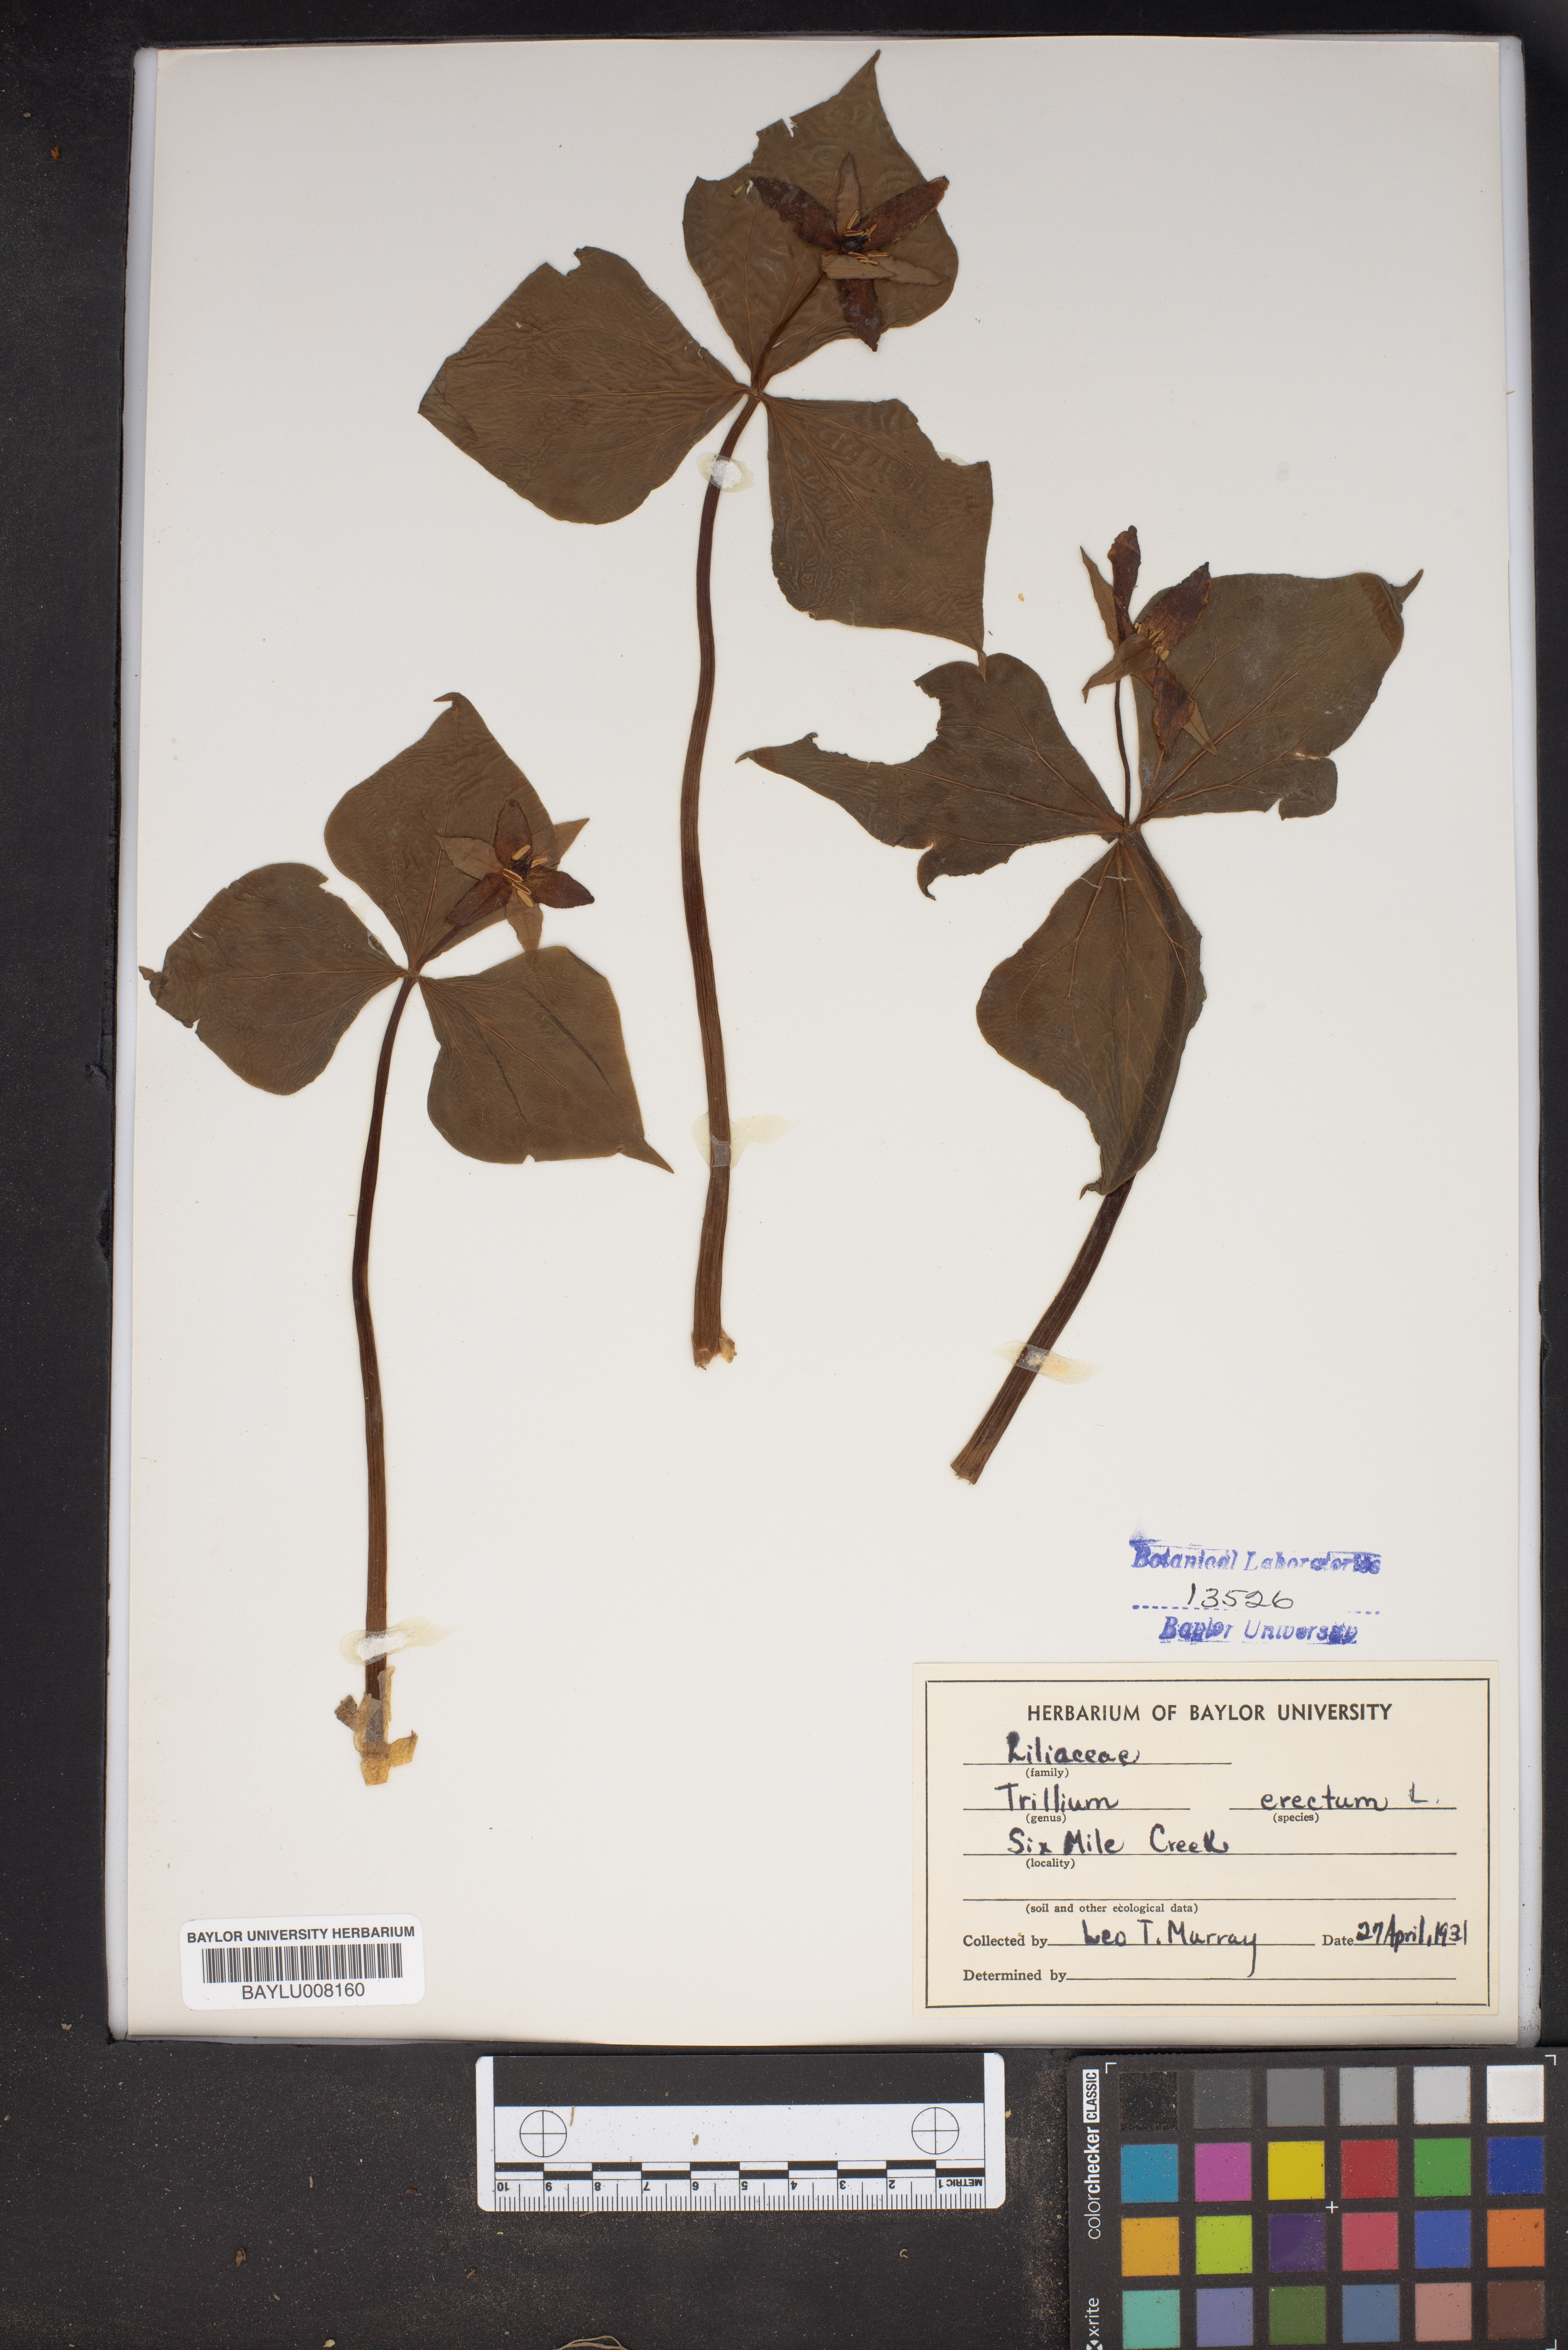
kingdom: Plantae
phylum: Tracheophyta
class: Liliopsida
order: Liliales
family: Melanthiaceae
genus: Trillium
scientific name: Trillium erectum
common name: Purple trillium
